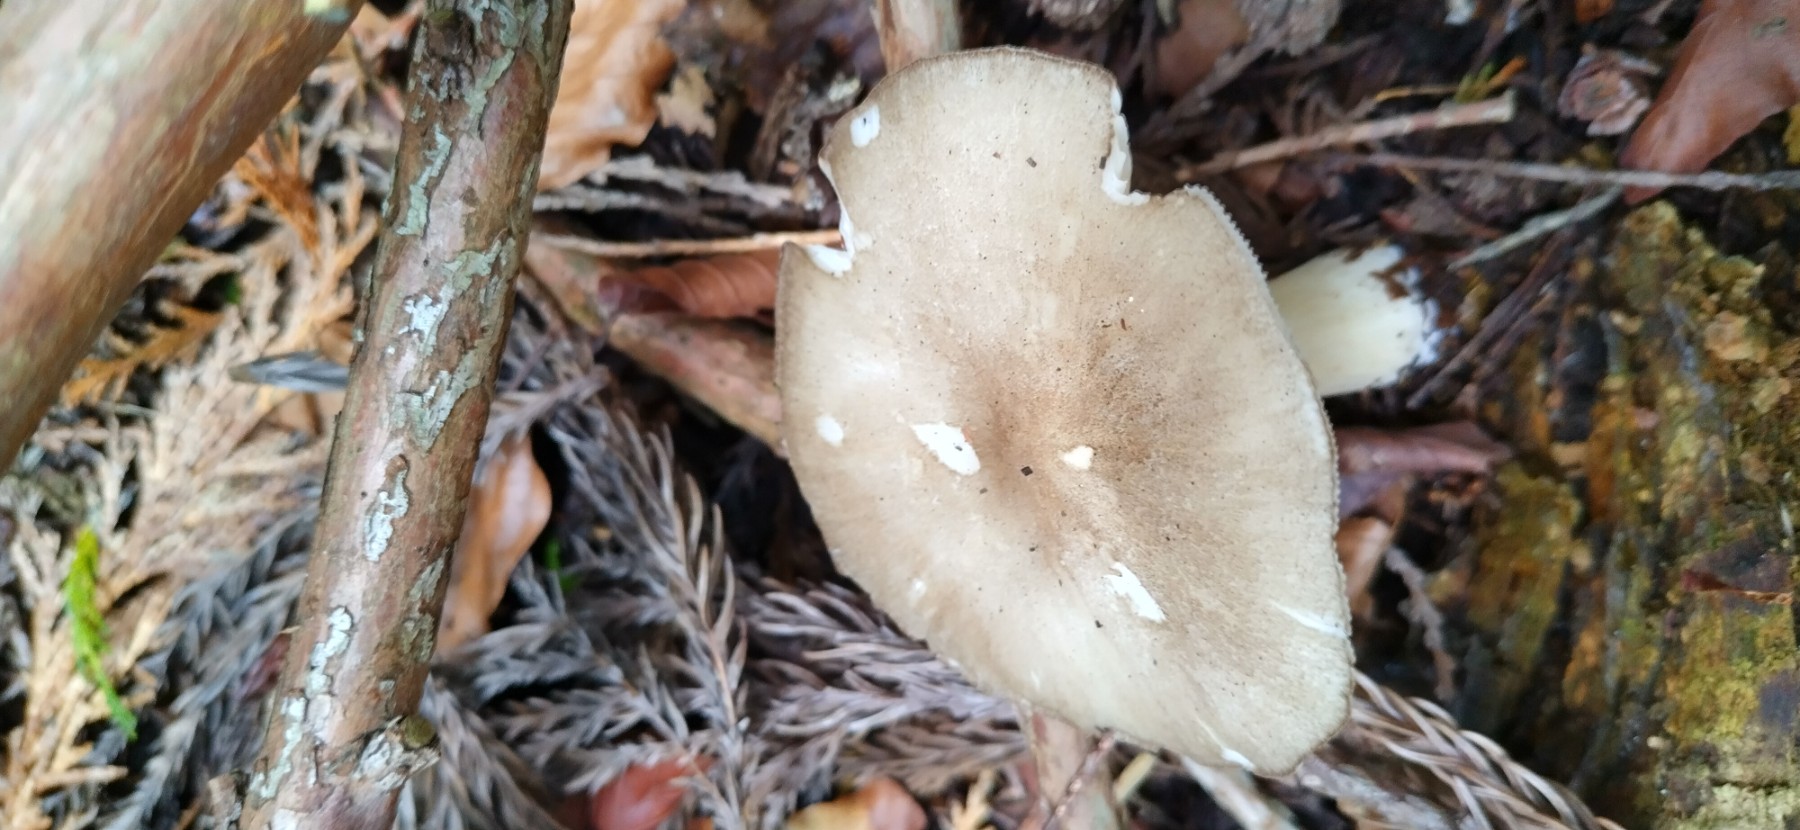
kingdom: Fungi
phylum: Basidiomycota
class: Agaricomycetes
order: Agaricales
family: Tricholomataceae
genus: Megacollybia
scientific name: Megacollybia platyphylla
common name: bredbladet væbnerhat
